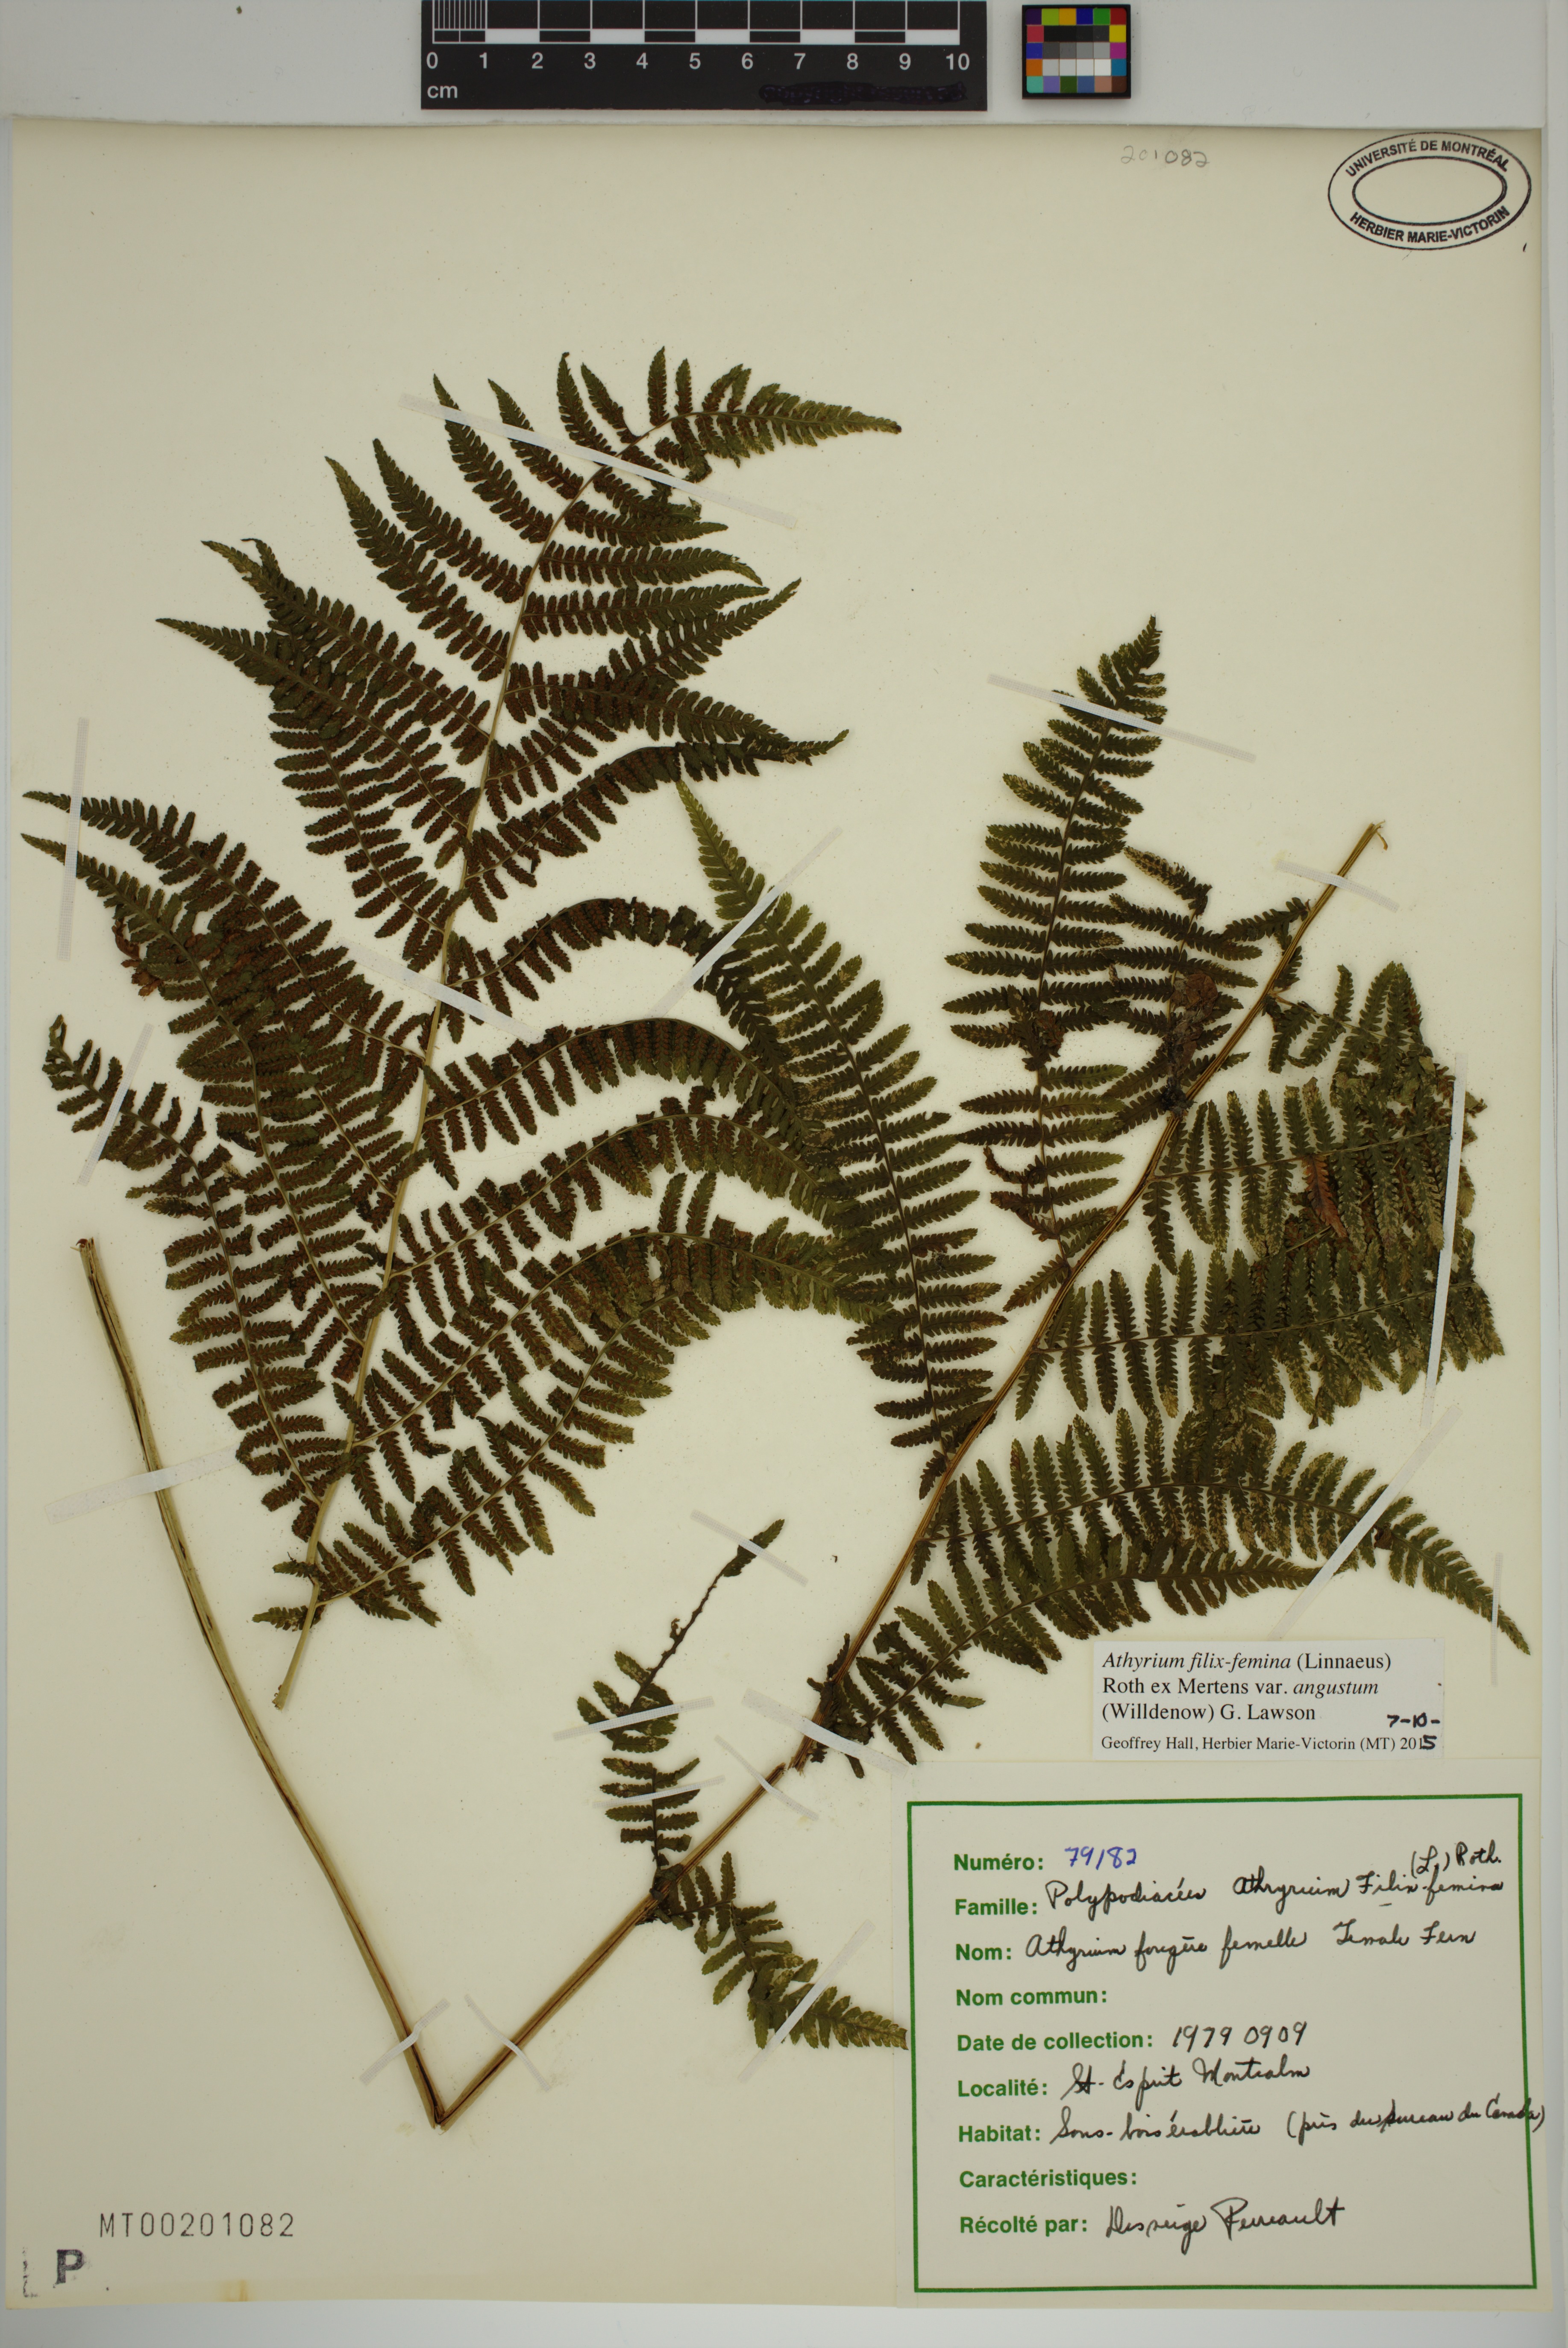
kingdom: Plantae
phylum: Tracheophyta
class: Polypodiopsida
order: Polypodiales
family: Athyriaceae
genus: Athyrium
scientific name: Athyrium angustum
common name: Northern lady fern
